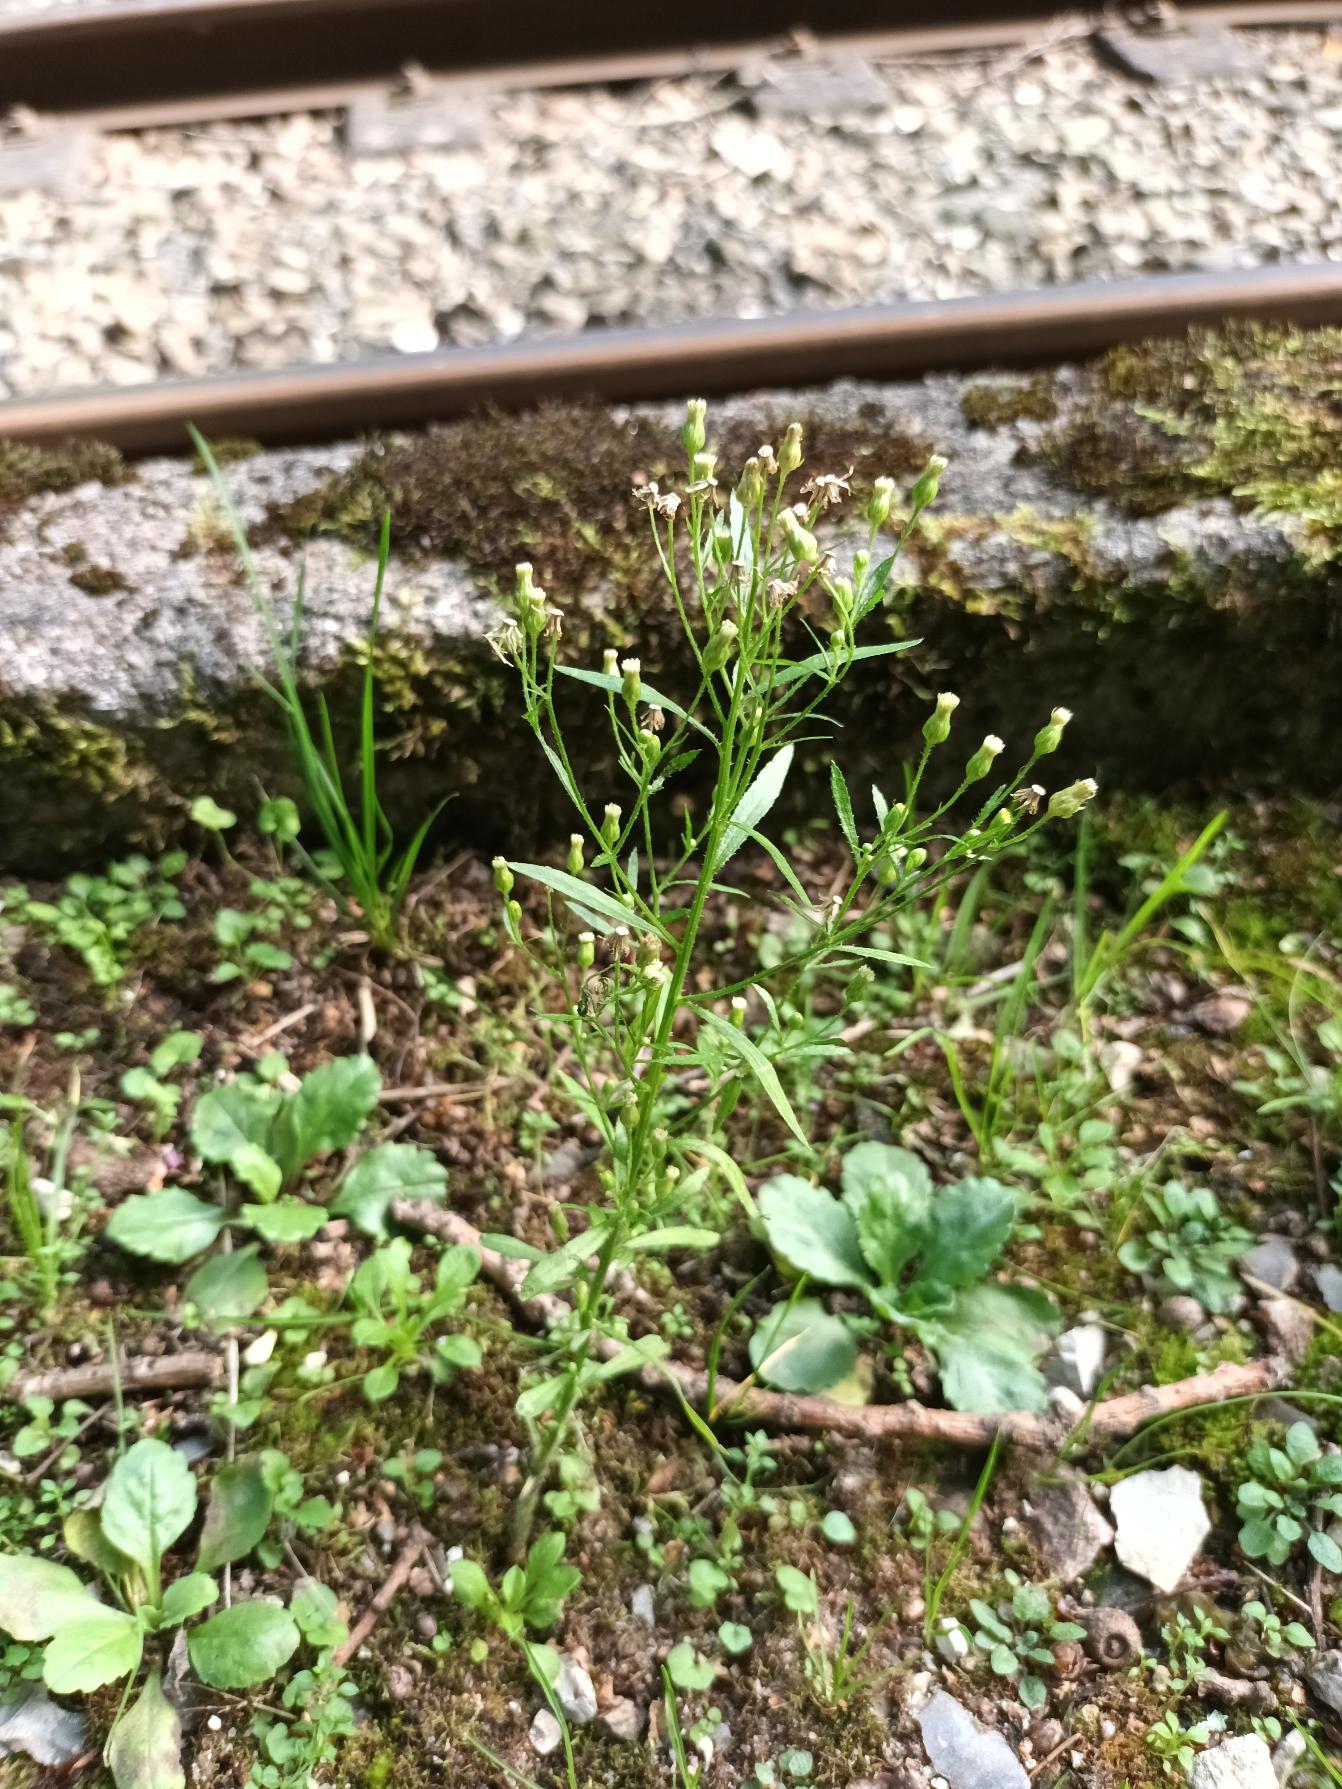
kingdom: Plantae
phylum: Tracheophyta
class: Magnoliopsida
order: Asterales
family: Asteraceae
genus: Erigeron
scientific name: Erigeron canadensis
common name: Kanadisk bakkestjerne
